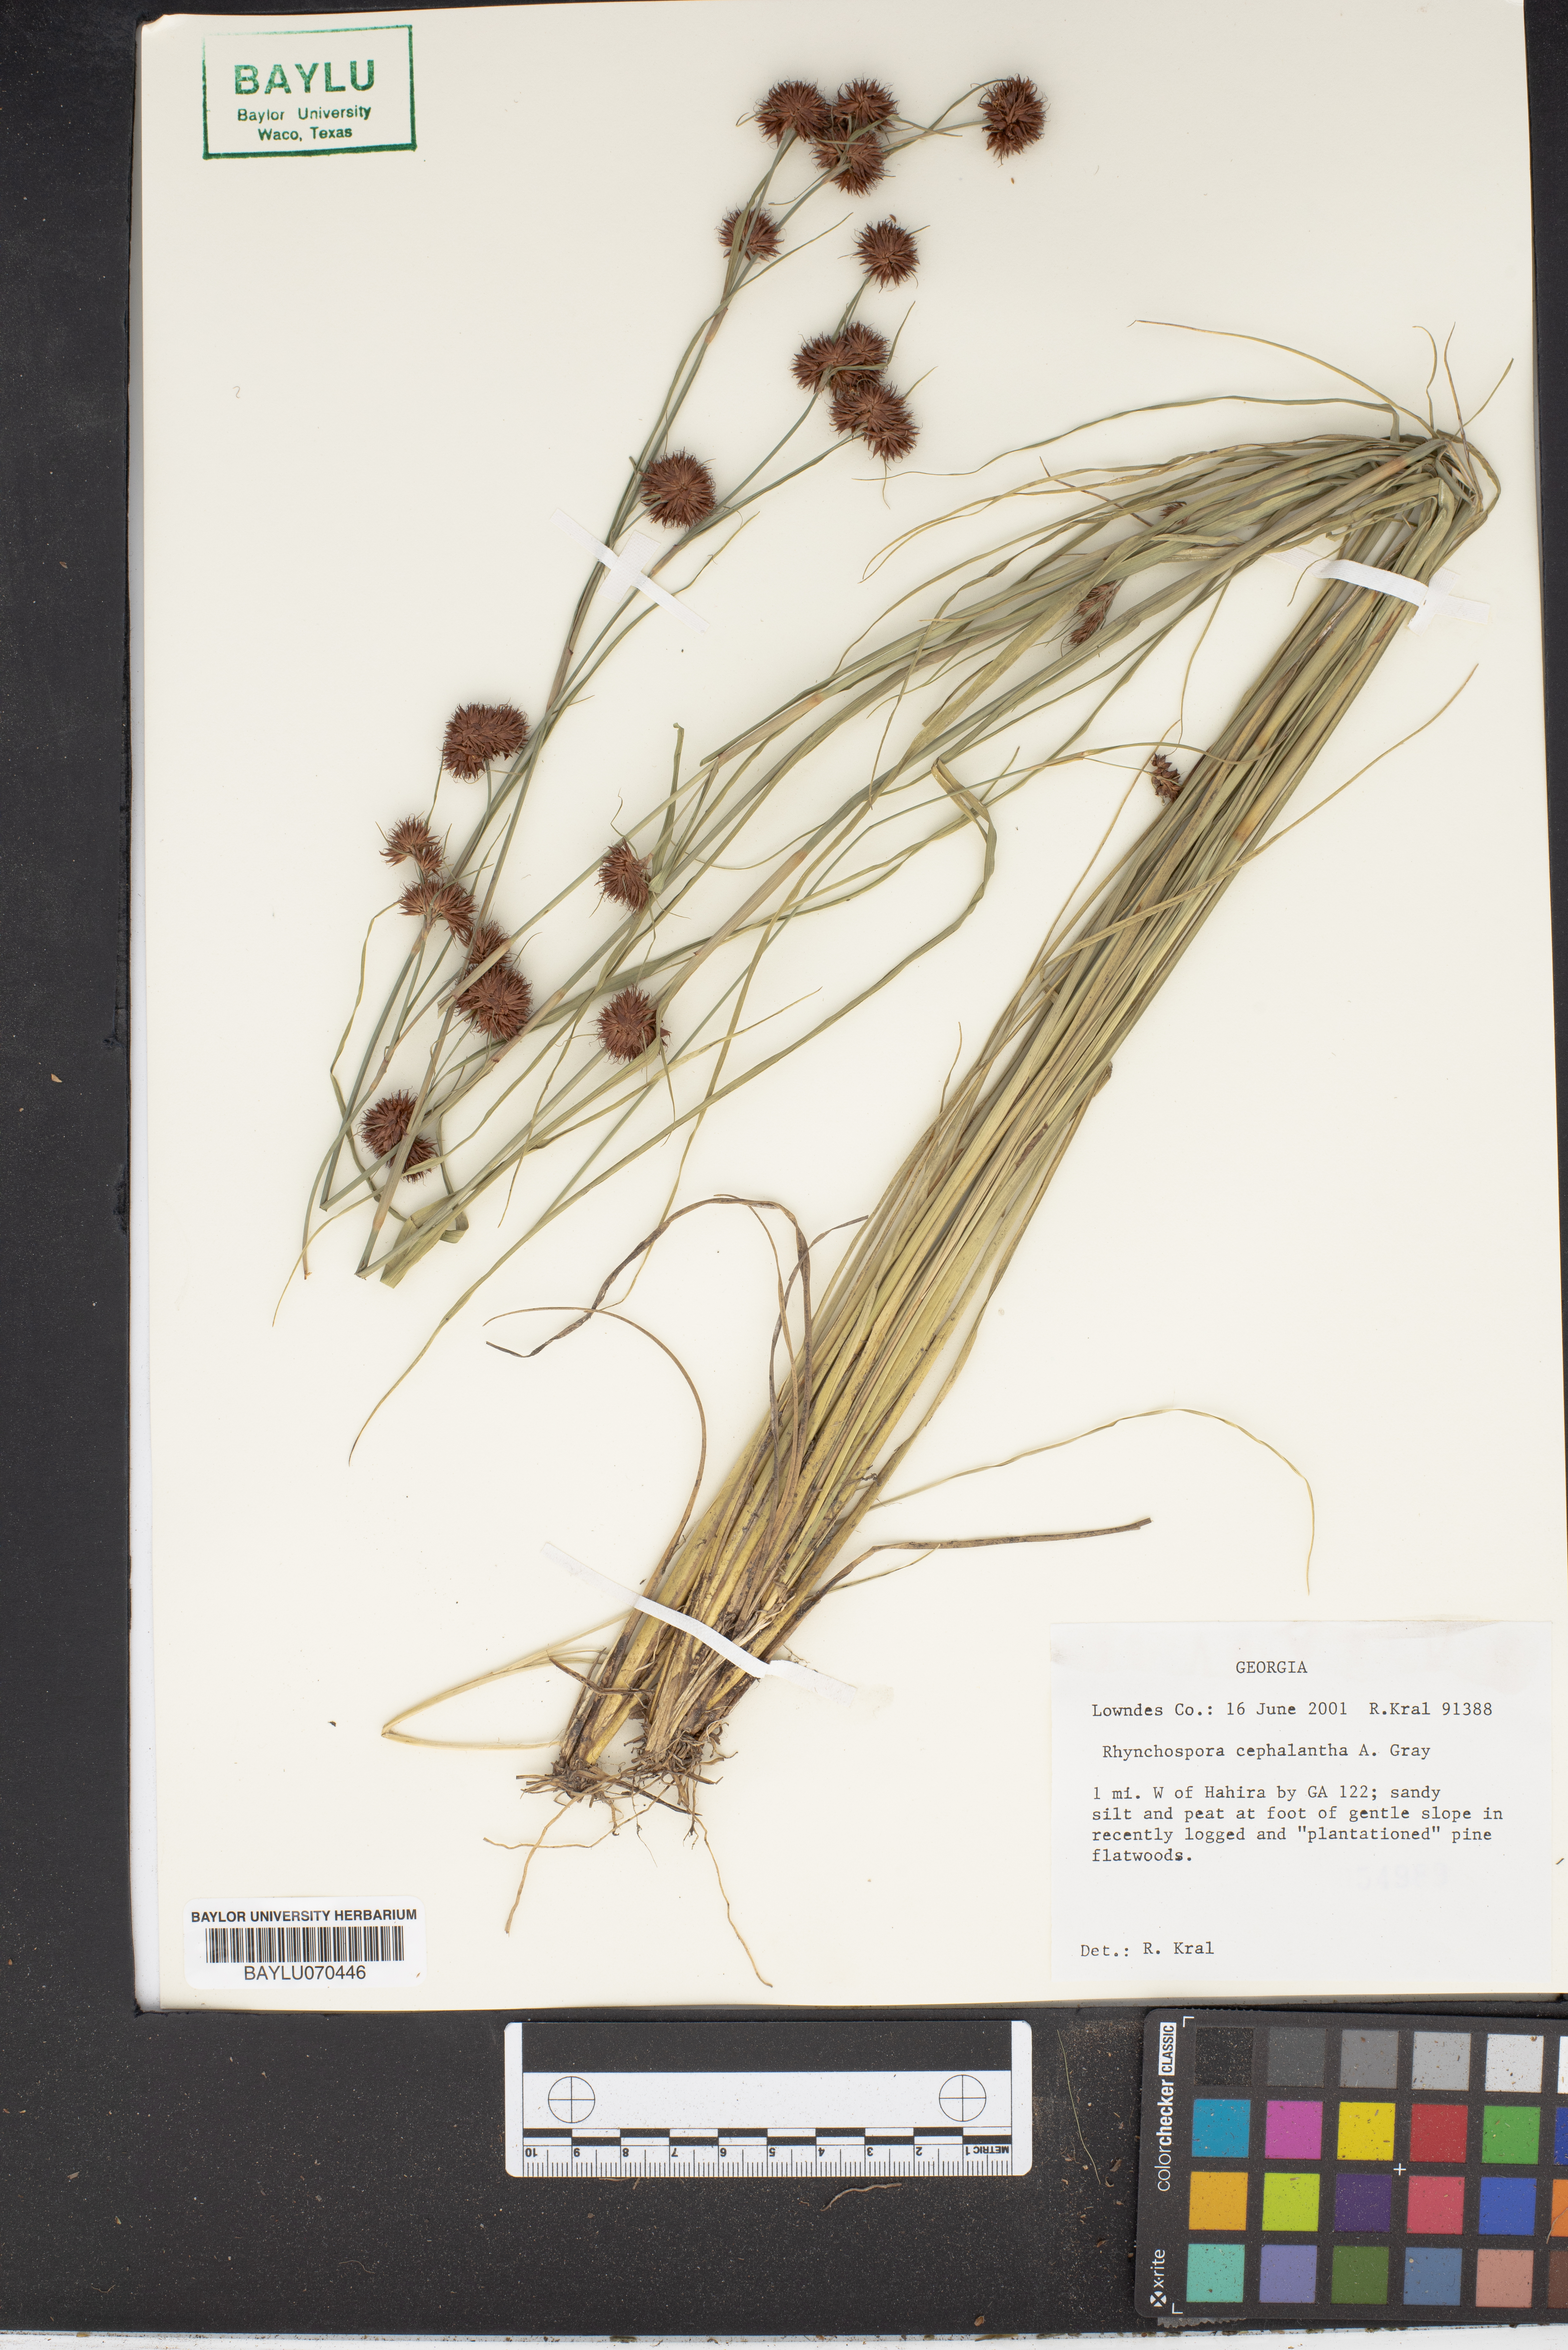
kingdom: Plantae
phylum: Tracheophyta
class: Liliopsida
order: Poales
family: Cyperaceae
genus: Rhynchospora
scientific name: Rhynchospora cephalantha
